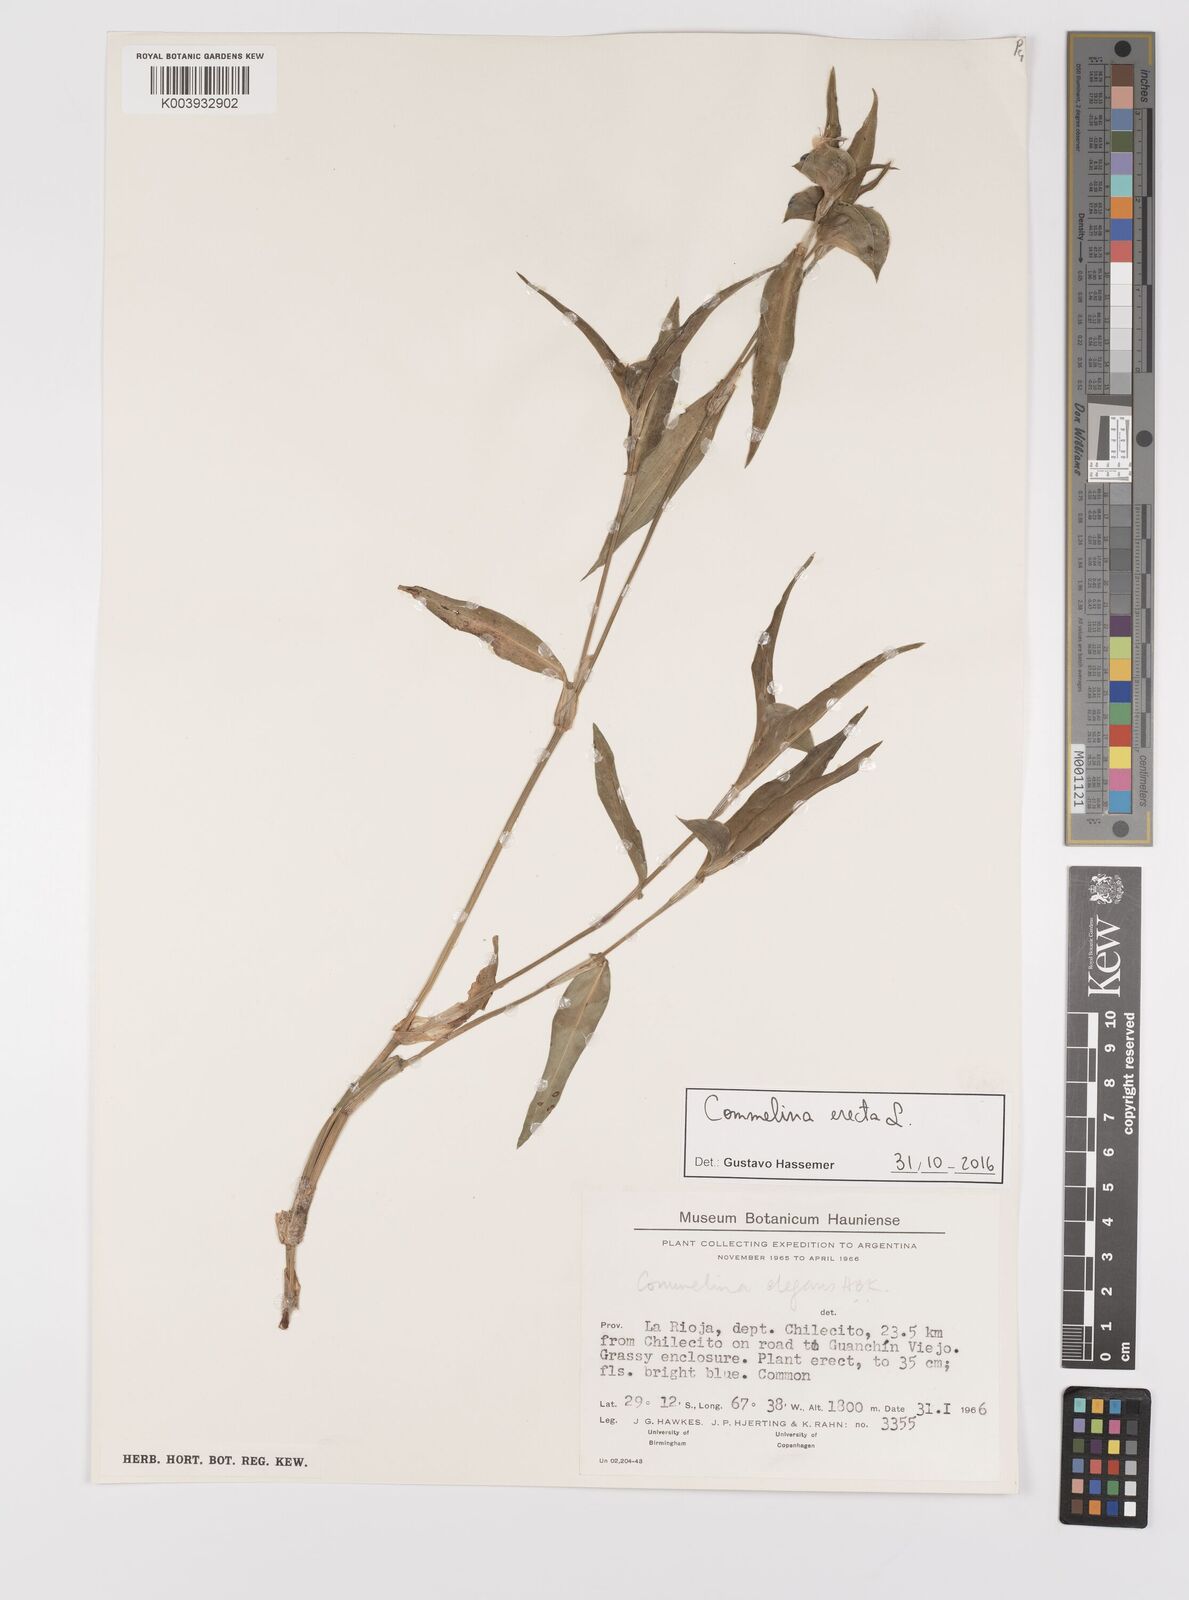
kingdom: Plantae
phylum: Tracheophyta
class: Liliopsida
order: Commelinales
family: Commelinaceae
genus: Commelina
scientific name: Commelina erecta
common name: Blousel blommetjie
